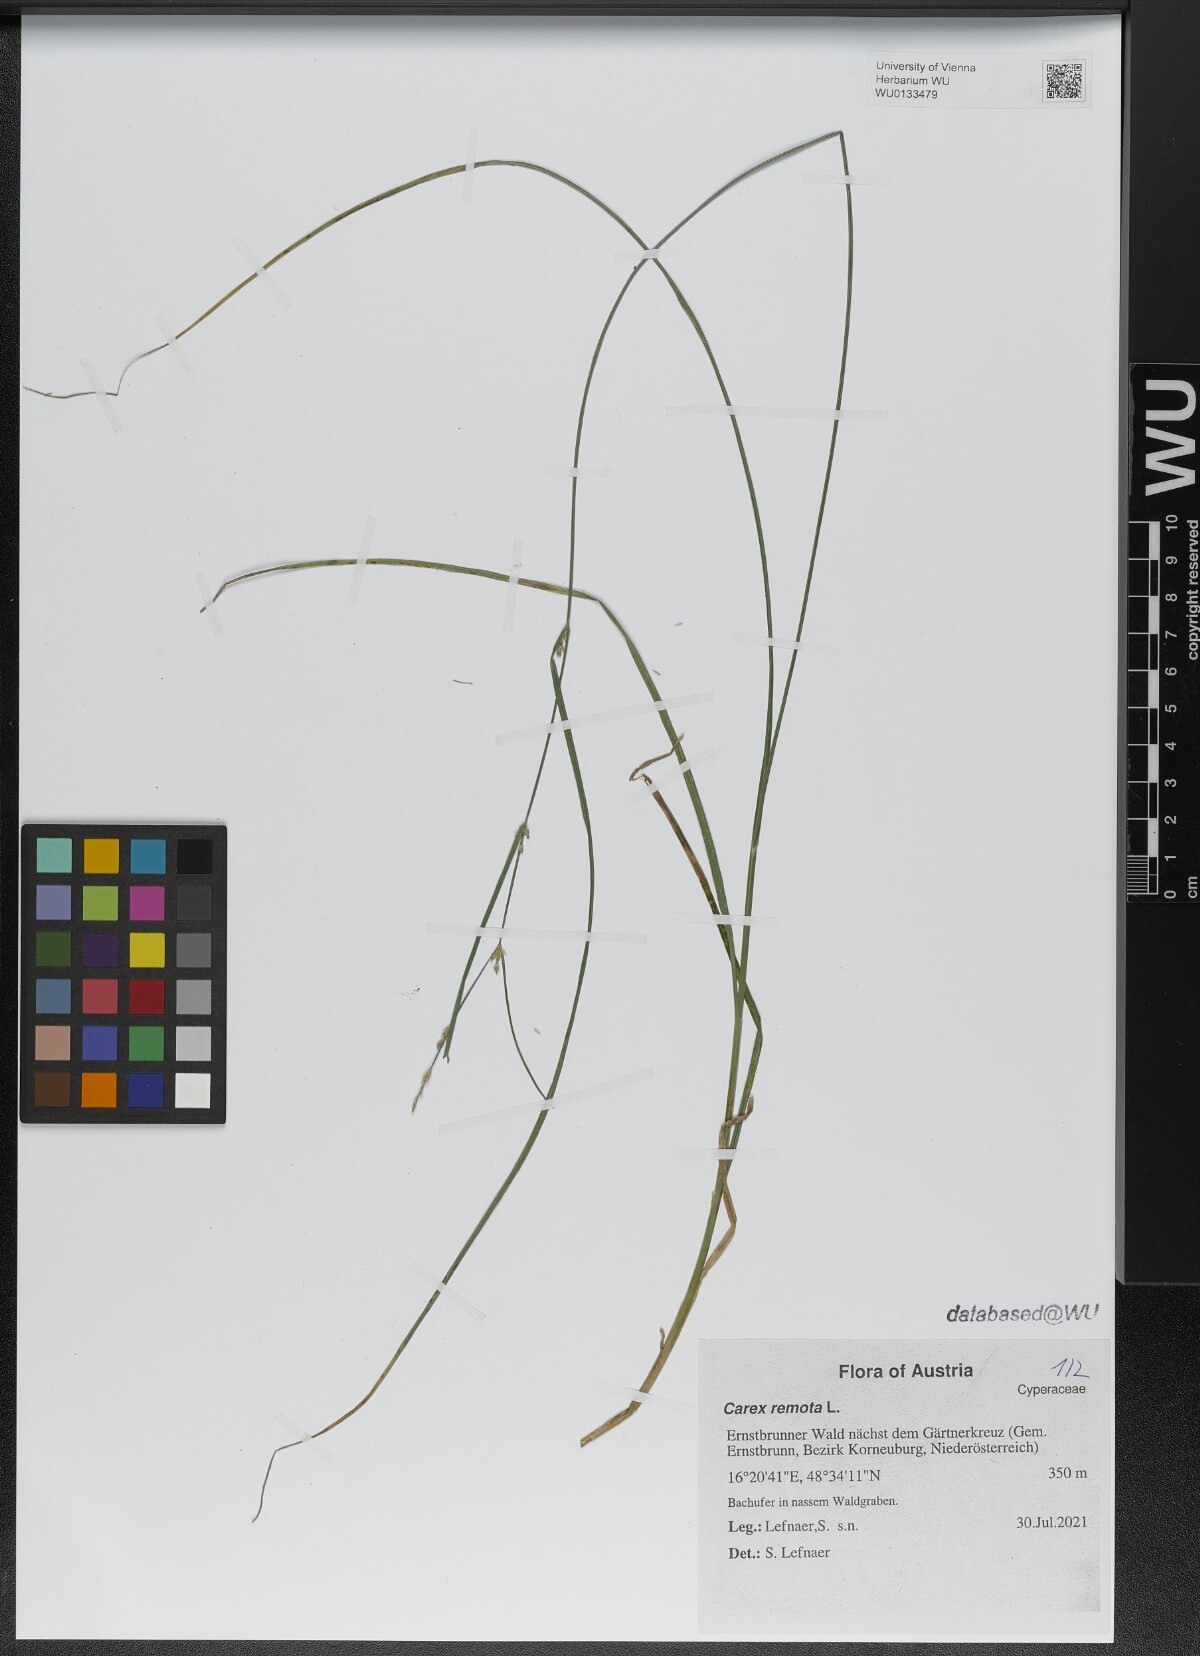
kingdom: Plantae
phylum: Tracheophyta
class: Liliopsida
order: Poales
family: Cyperaceae
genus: Carex
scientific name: Carex remota
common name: Remote sedge
